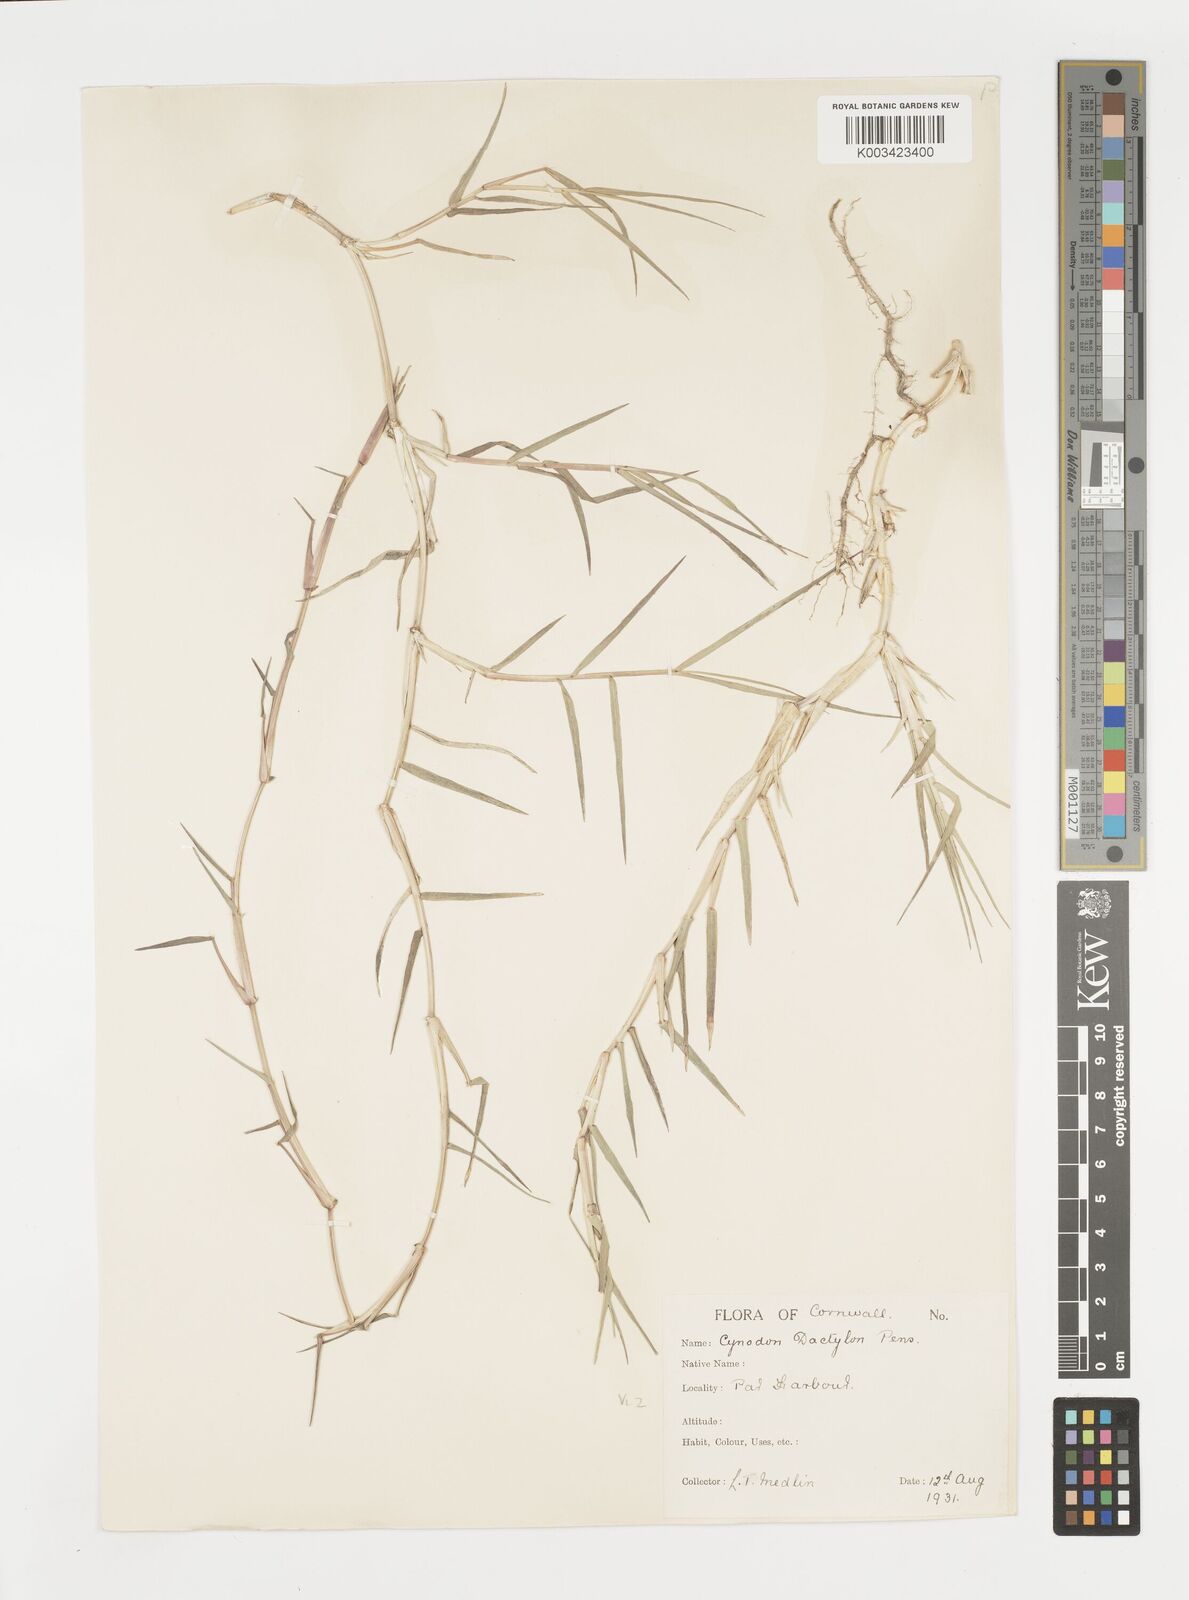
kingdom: Plantae
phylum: Tracheophyta
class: Liliopsida
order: Poales
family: Poaceae
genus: Cynodon
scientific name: Cynodon dactylon
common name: Bermuda grass
